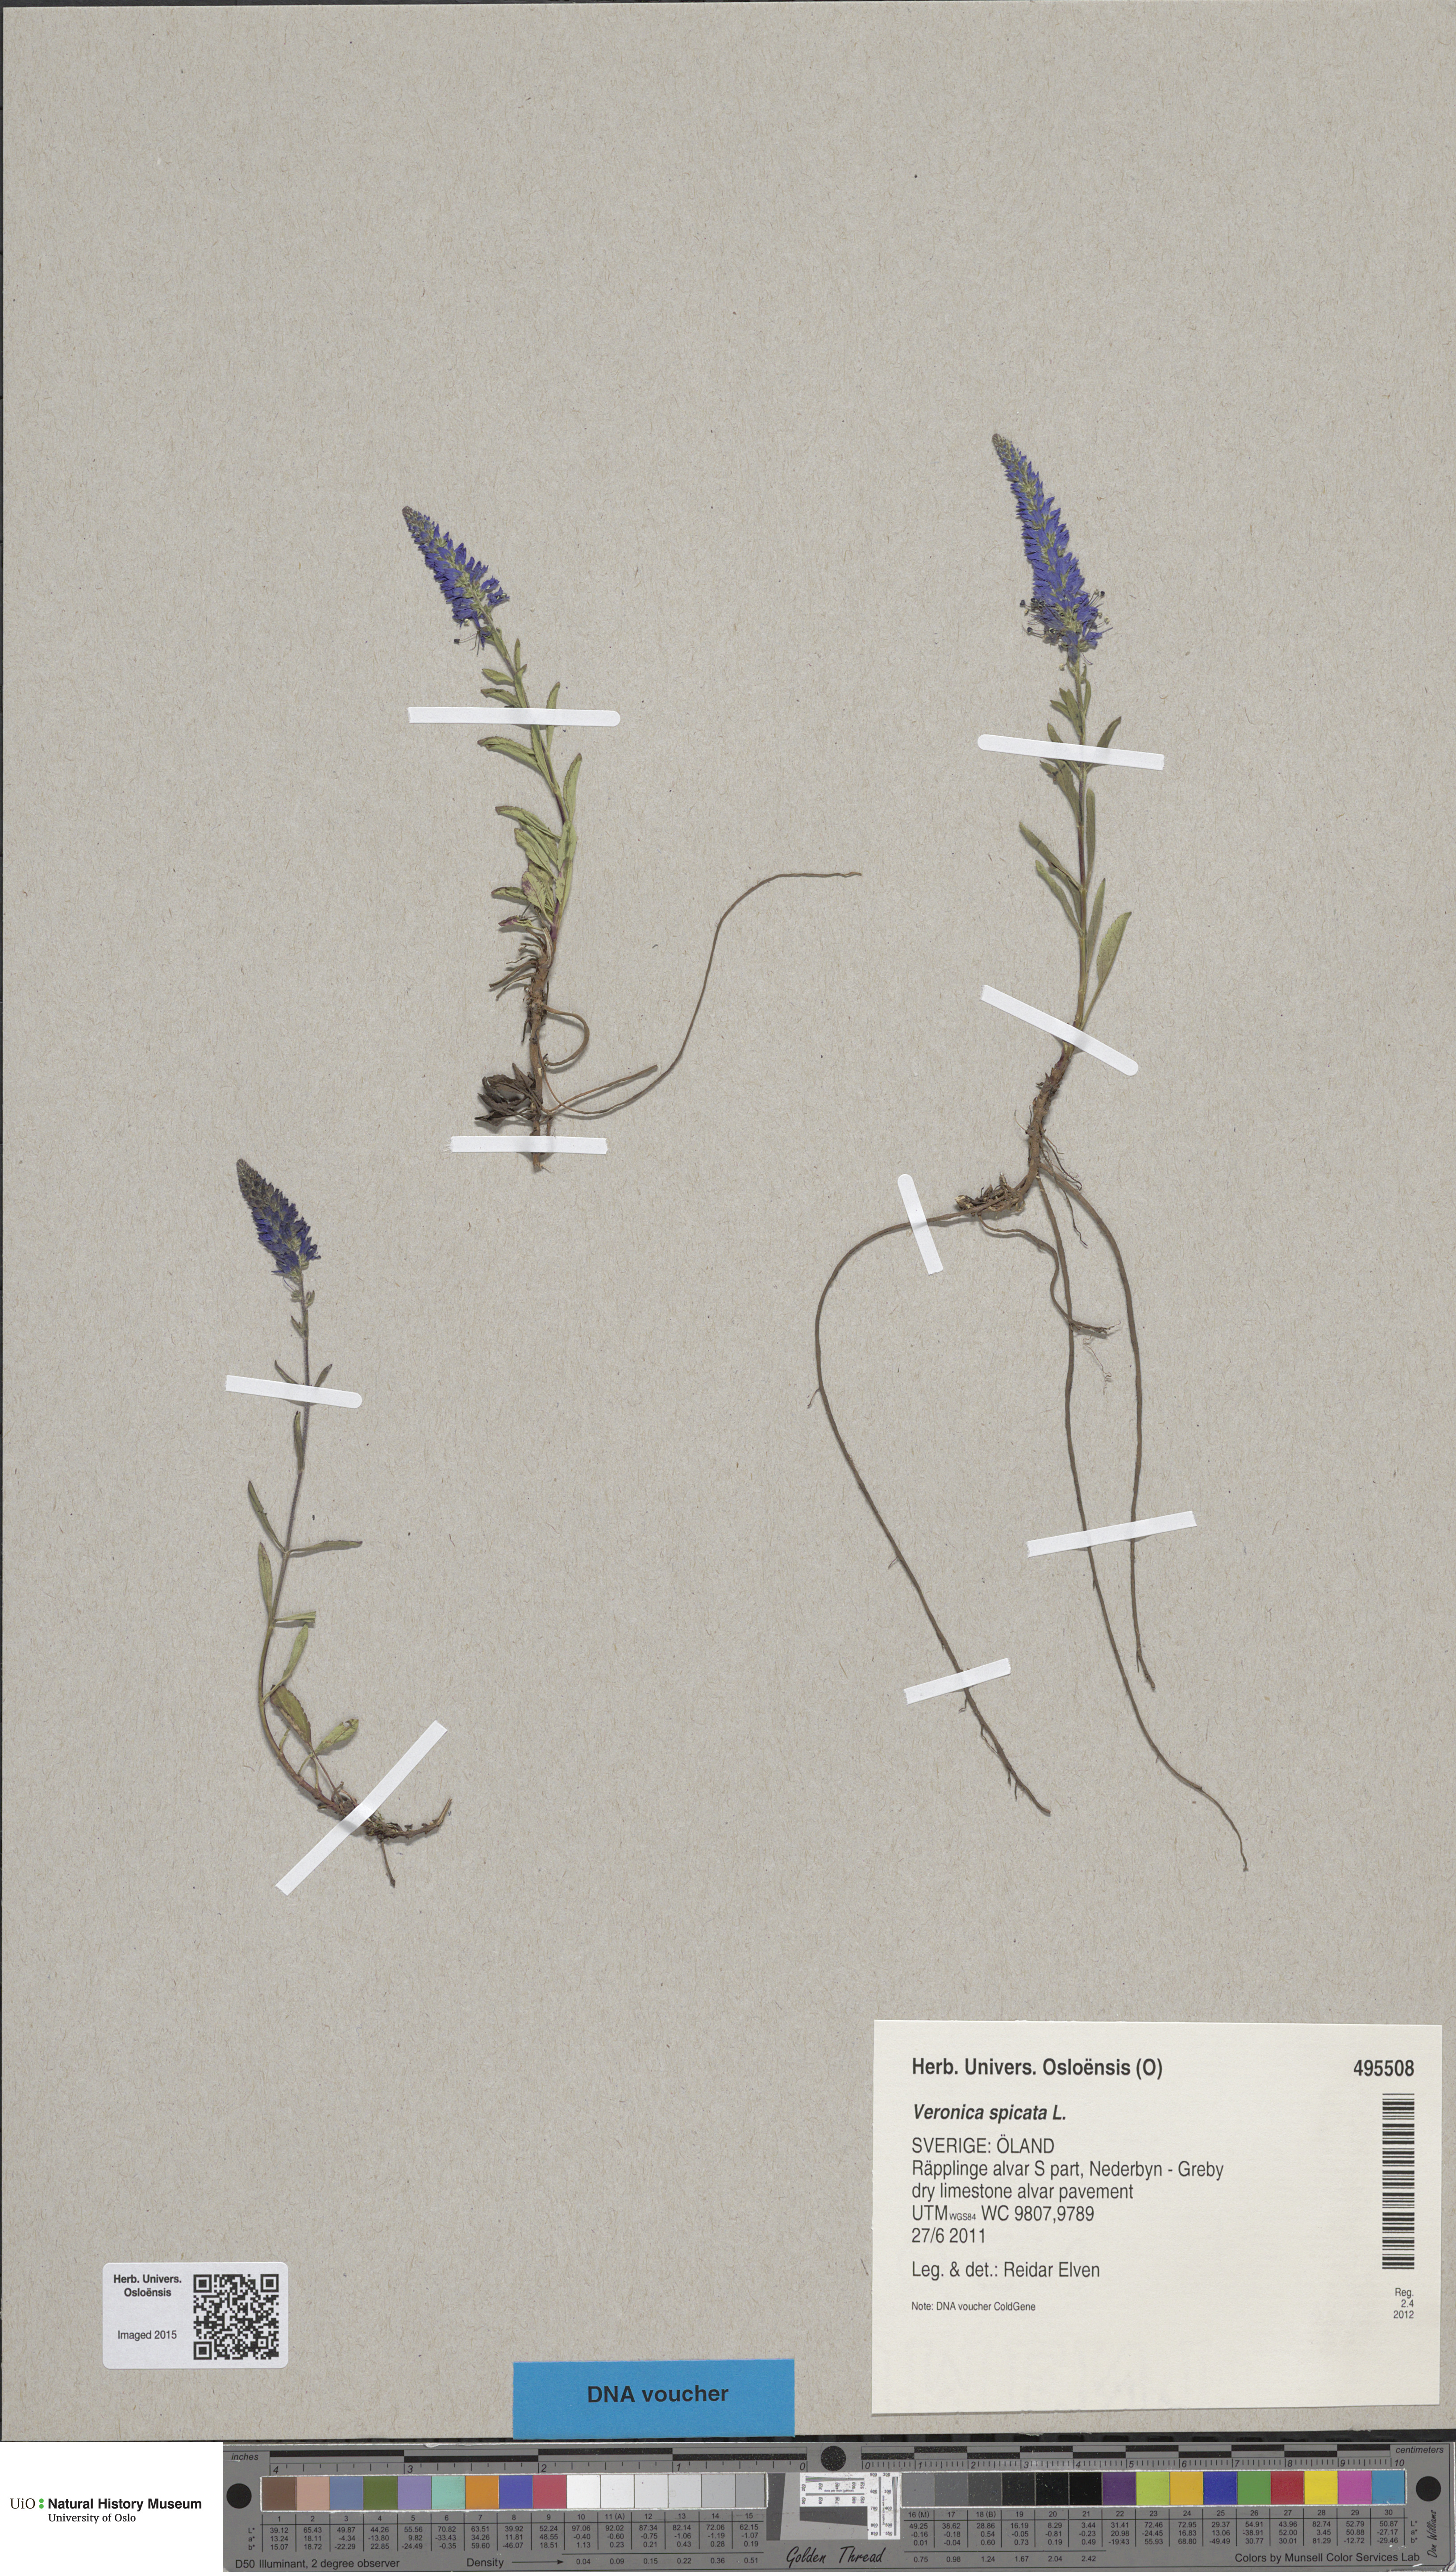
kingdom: Plantae
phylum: Tracheophyta
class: Magnoliopsida
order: Lamiales
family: Plantaginaceae
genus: Veronica
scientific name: Veronica spicata
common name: Spiked speedwell
